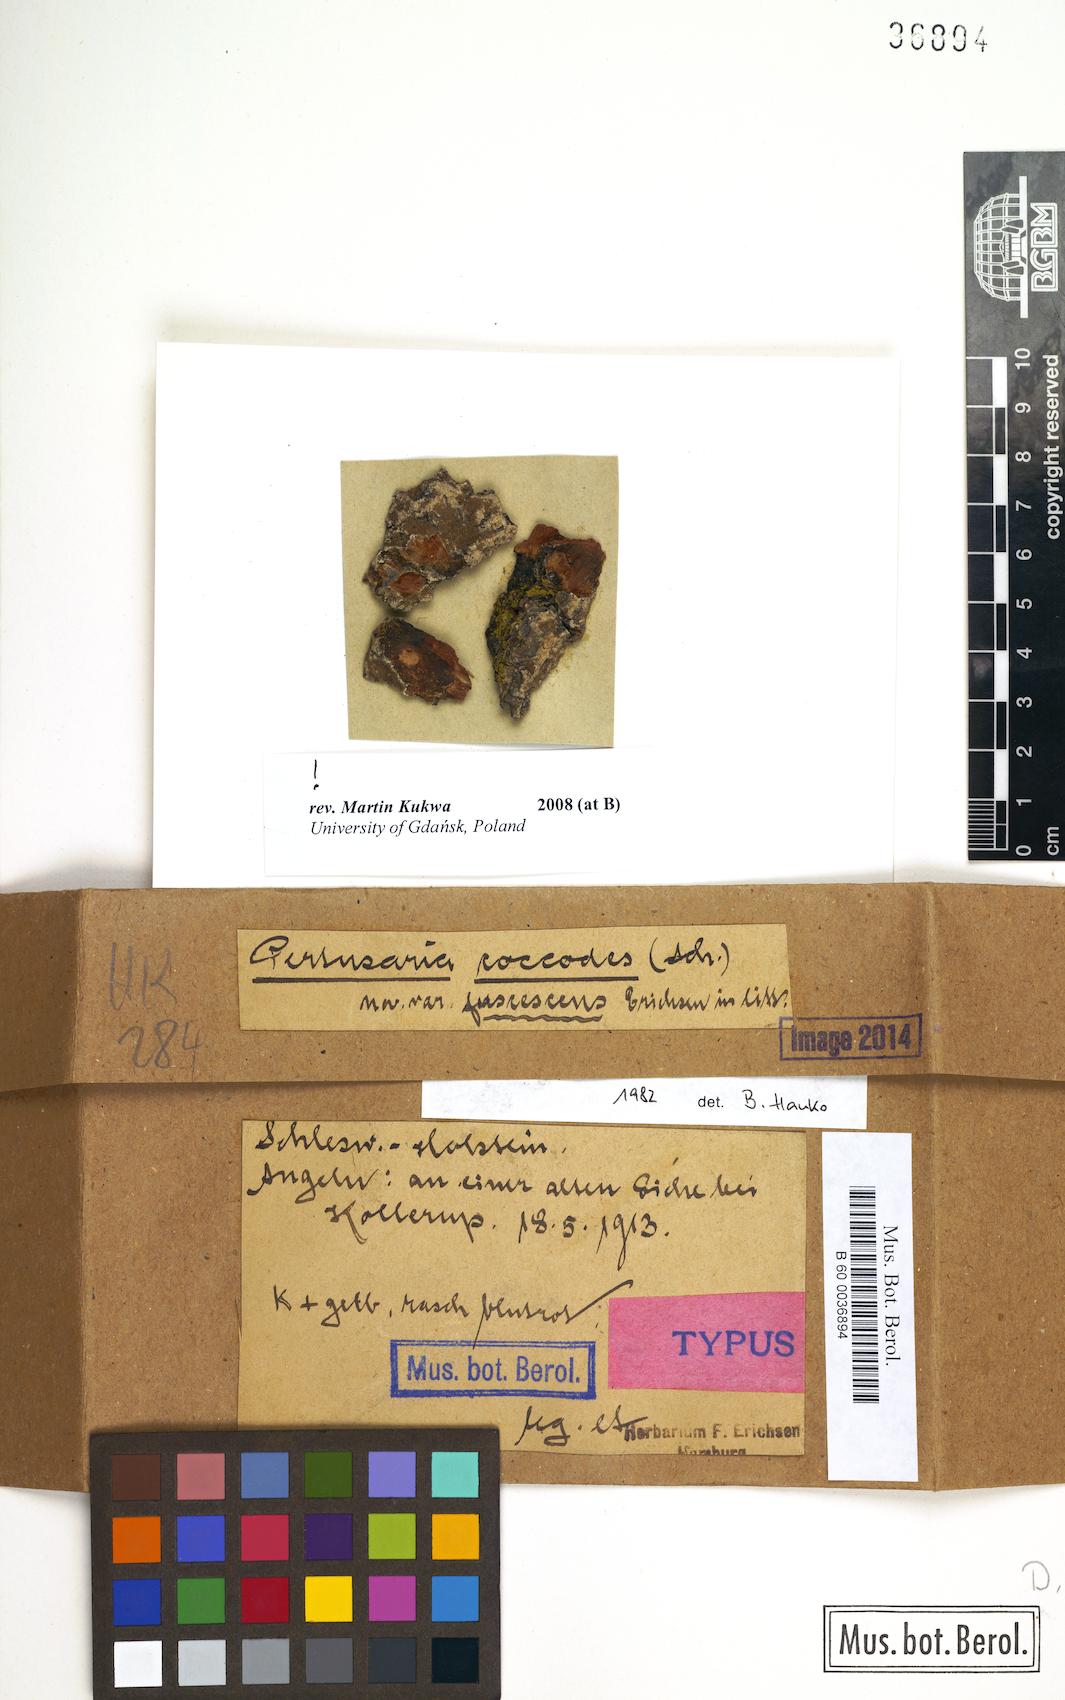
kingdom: Fungi
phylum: Ascomycota
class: Lecanoromycetes
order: Pertusariales
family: Pertusariaceae
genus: Pertusaria
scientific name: Pertusaria coccodes
